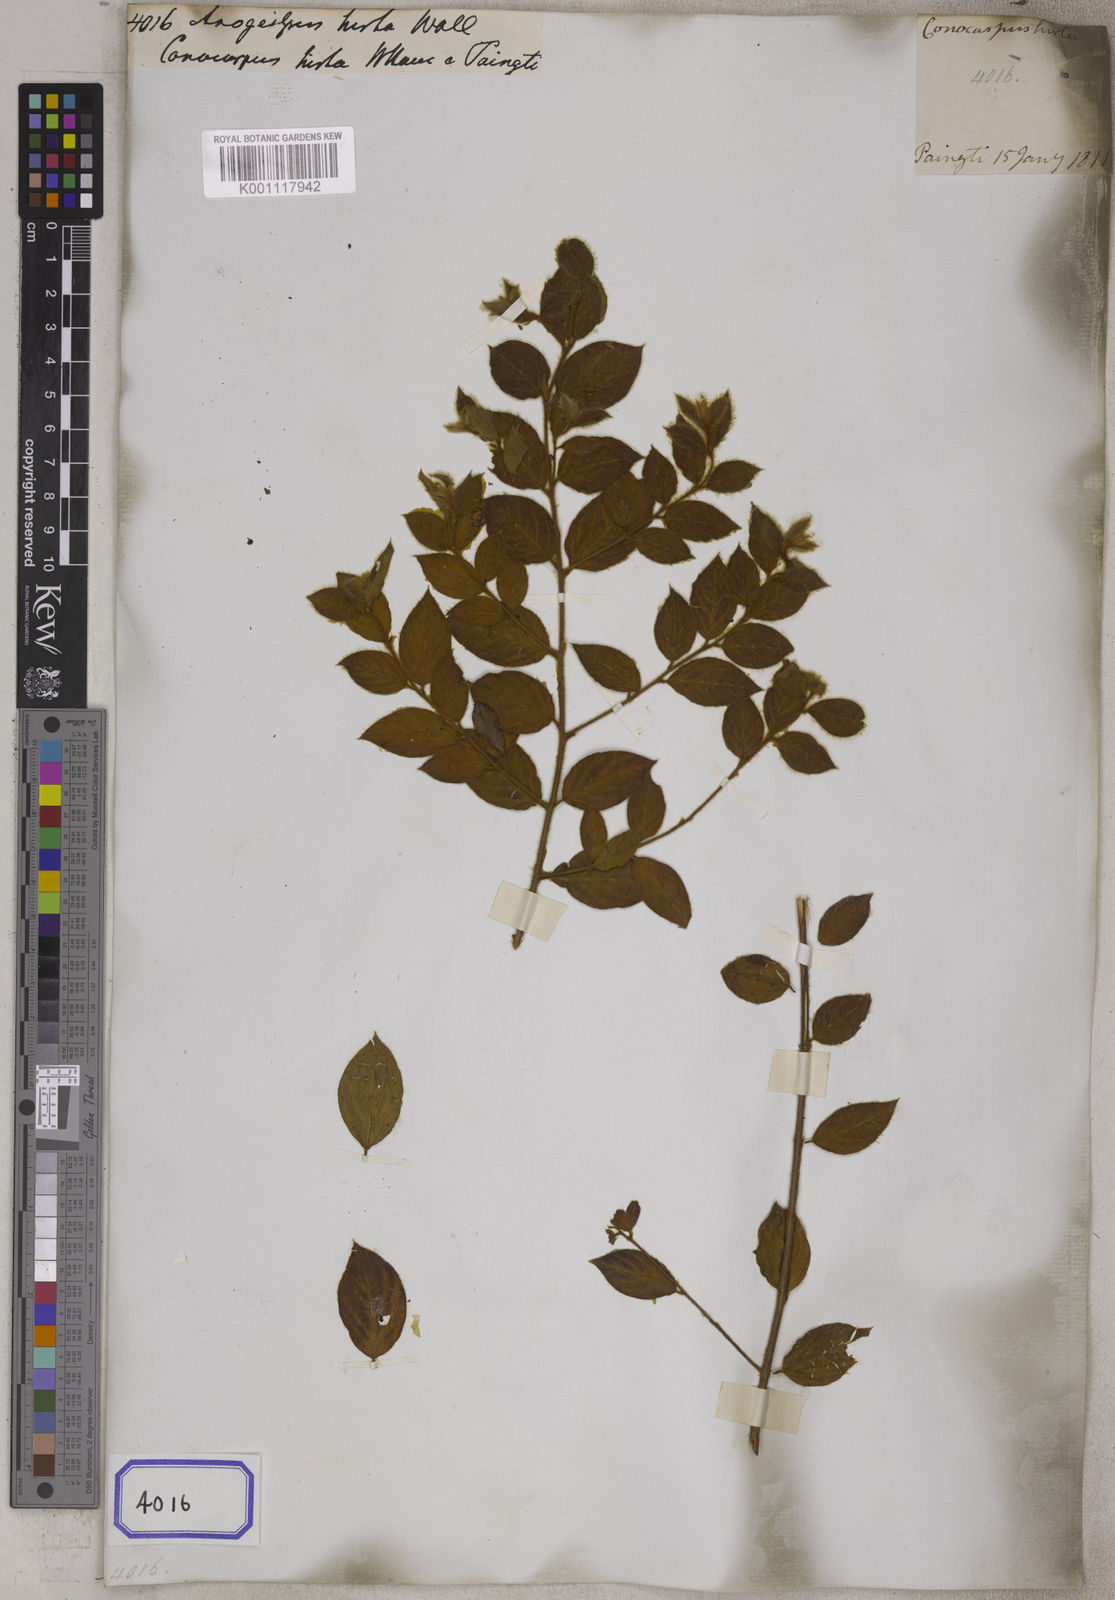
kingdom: Plantae
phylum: Tracheophyta
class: Magnoliopsida
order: Myrtales
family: Combretaceae
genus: Terminalia
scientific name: Terminalia phillyreifolia
